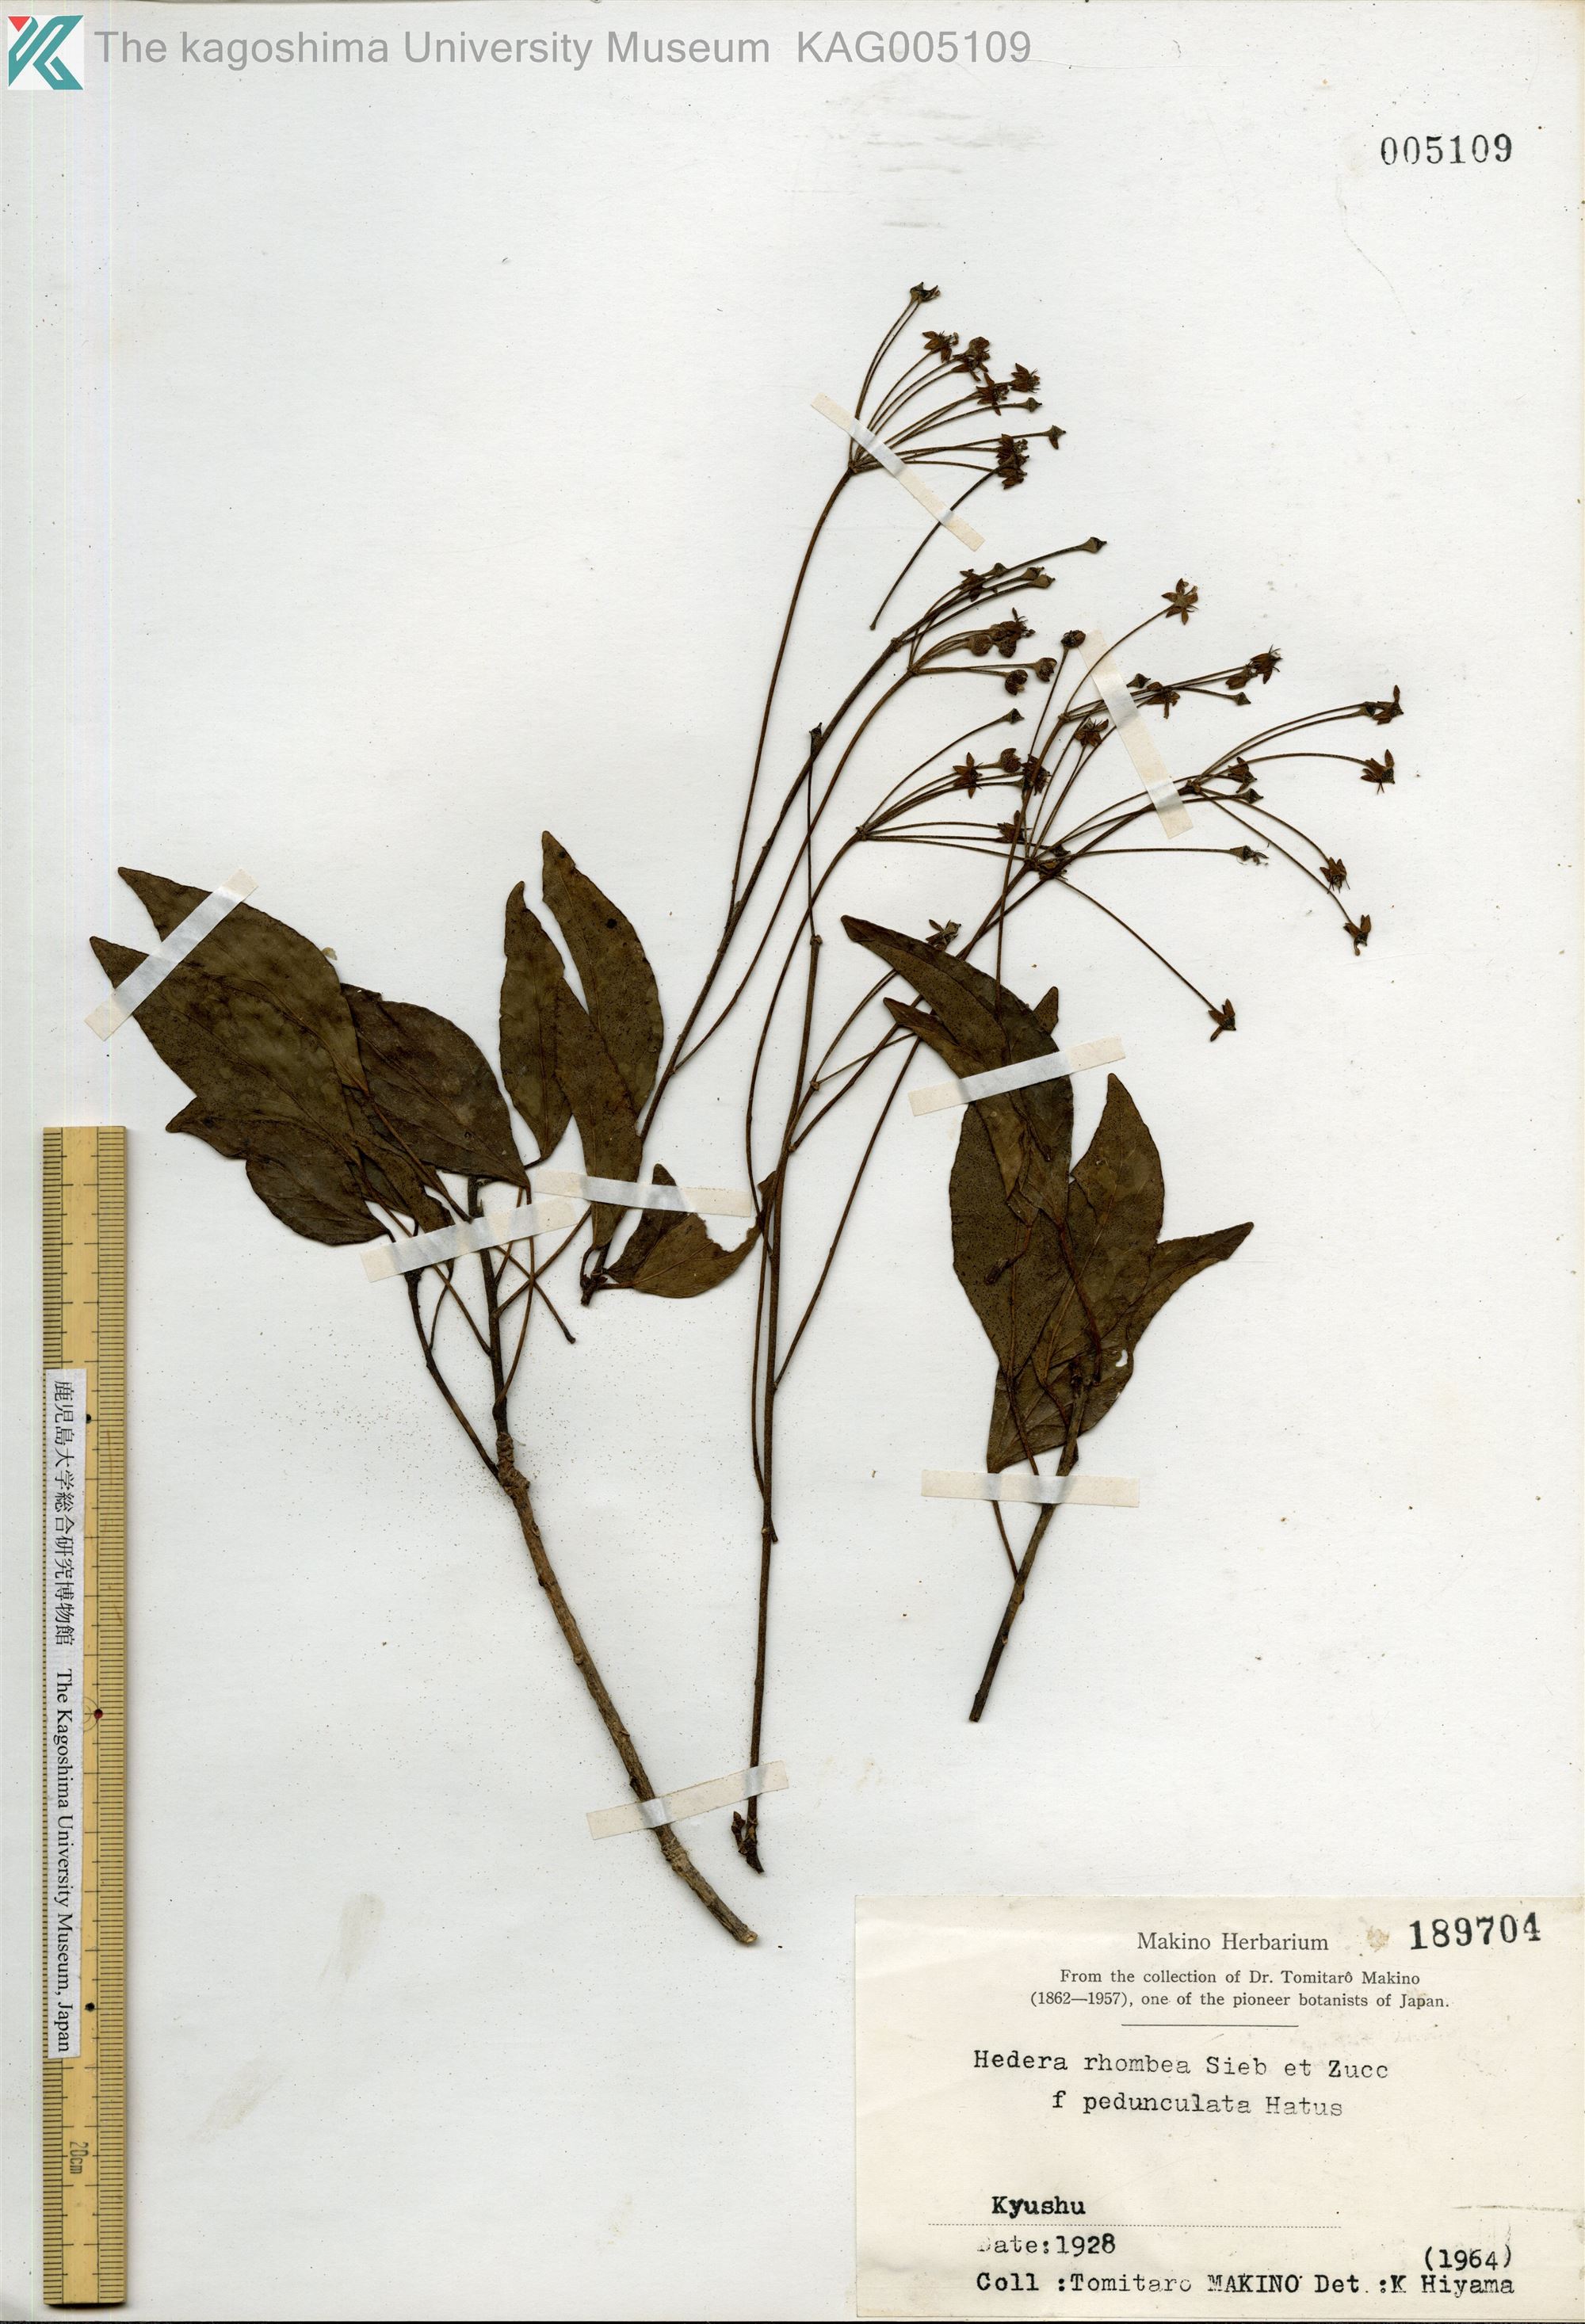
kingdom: Plantae
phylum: Tracheophyta
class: Magnoliopsida
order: Apiales
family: Araliaceae
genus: Hedera
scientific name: Hedera rhombea
